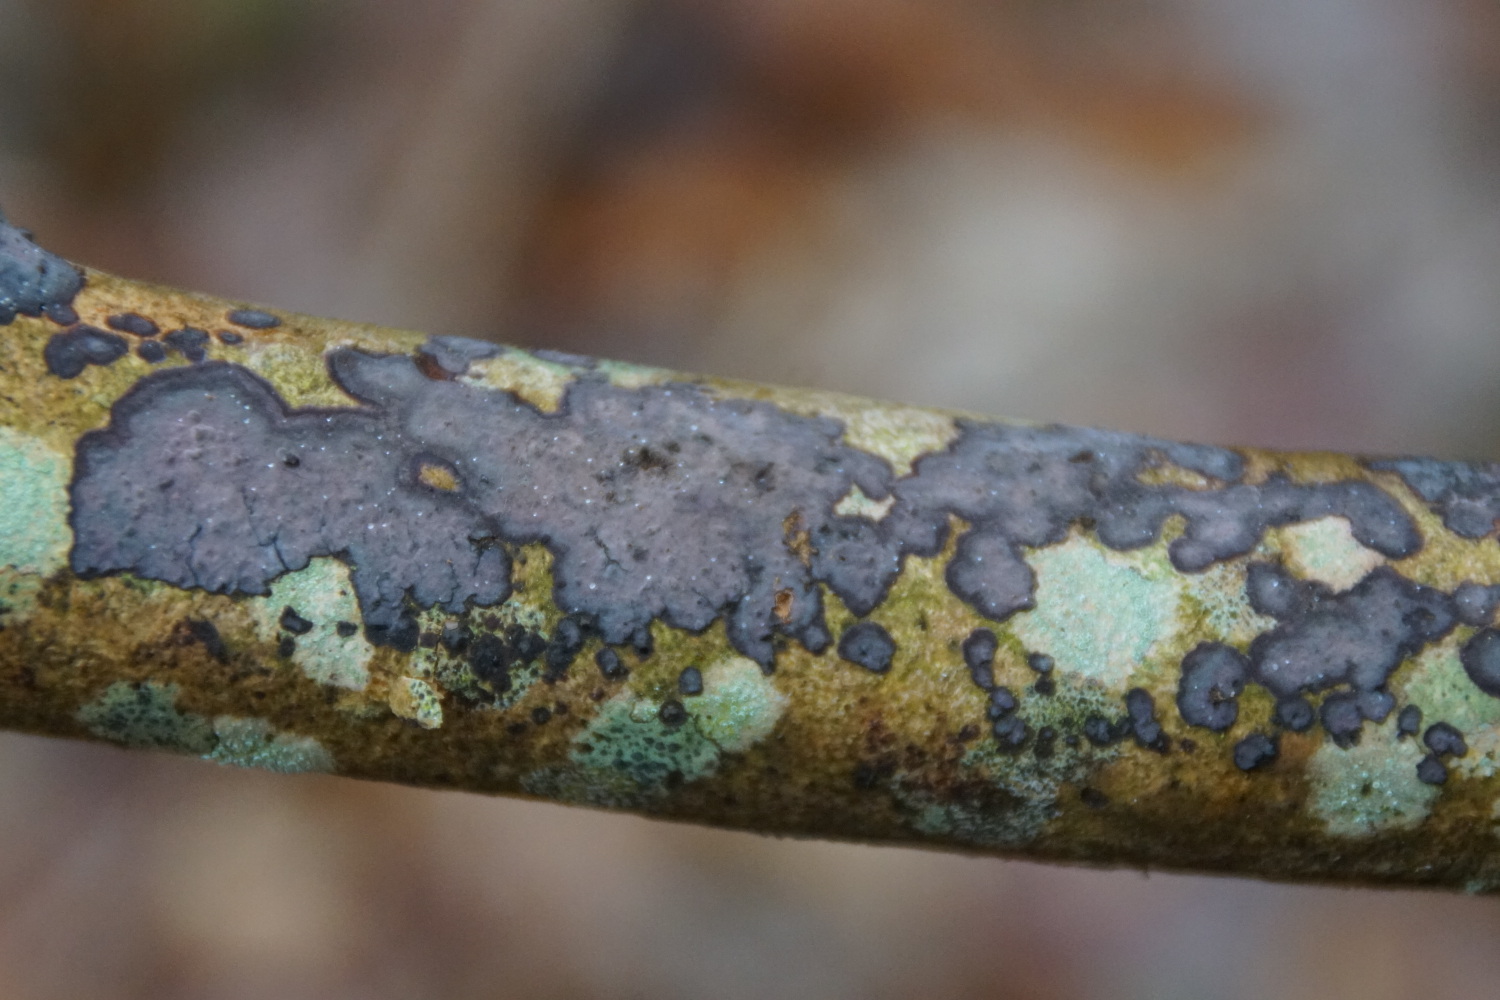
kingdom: Fungi
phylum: Basidiomycota
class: Agaricomycetes
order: Russulales
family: Peniophoraceae
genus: Peniophora
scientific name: Peniophora limitata
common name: mørkrandet voksskind
